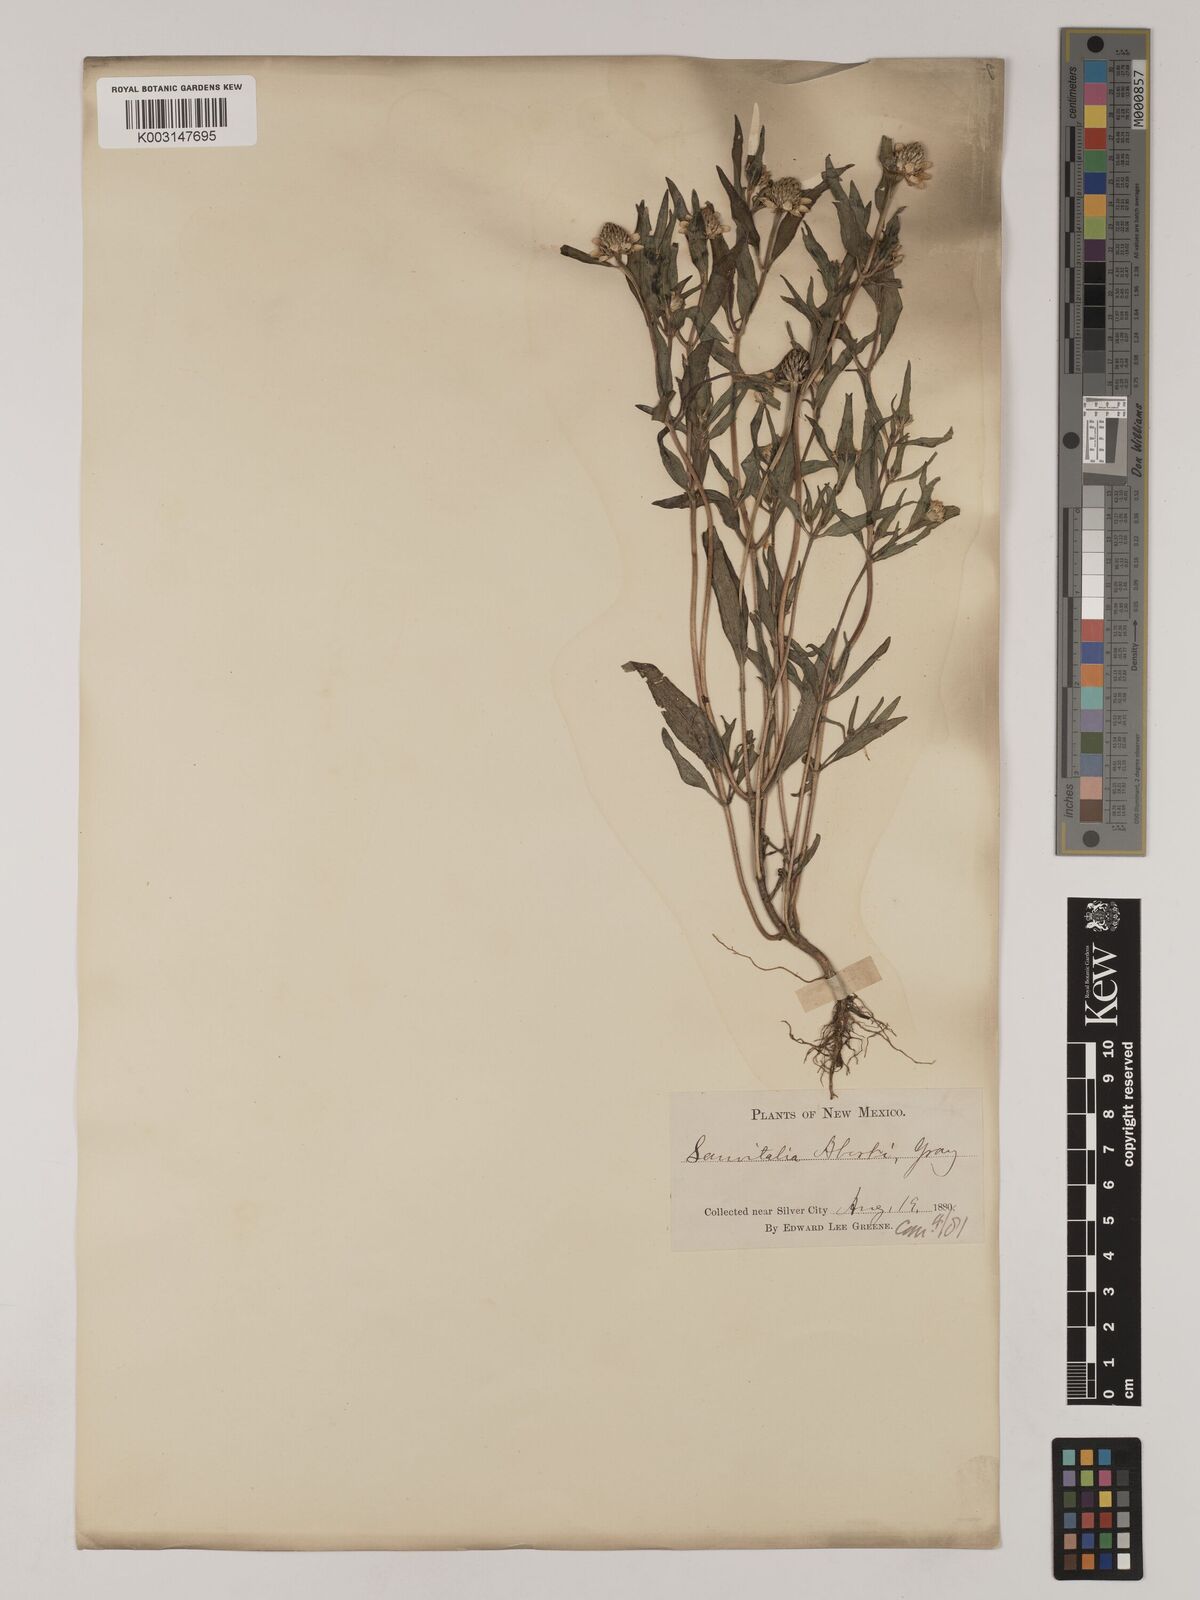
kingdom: Plantae
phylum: Tracheophyta
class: Magnoliopsida
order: Asterales
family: Asteraceae
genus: Sanvitalia
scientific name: Sanvitalia abertii
